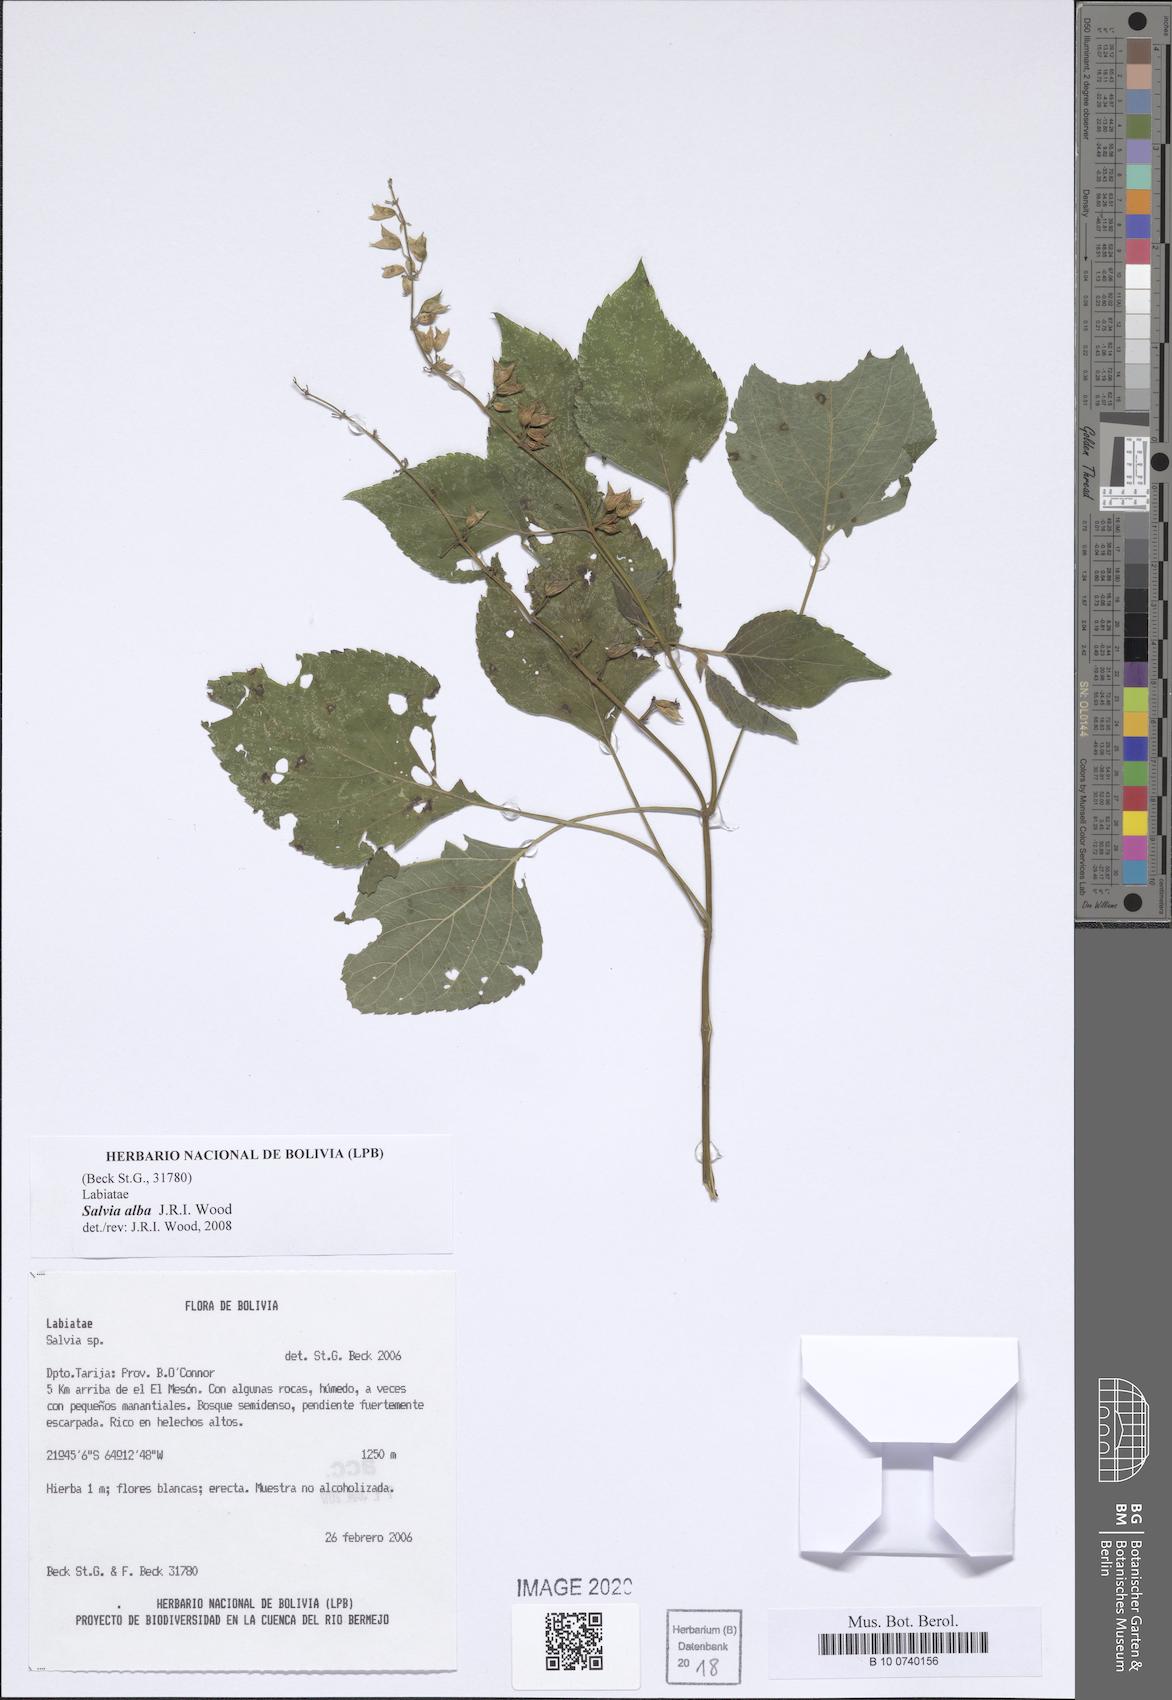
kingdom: Plantae
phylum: Tracheophyta
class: Magnoliopsida
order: Lamiales
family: Lamiaceae
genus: Salvia
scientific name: Salvia personata
